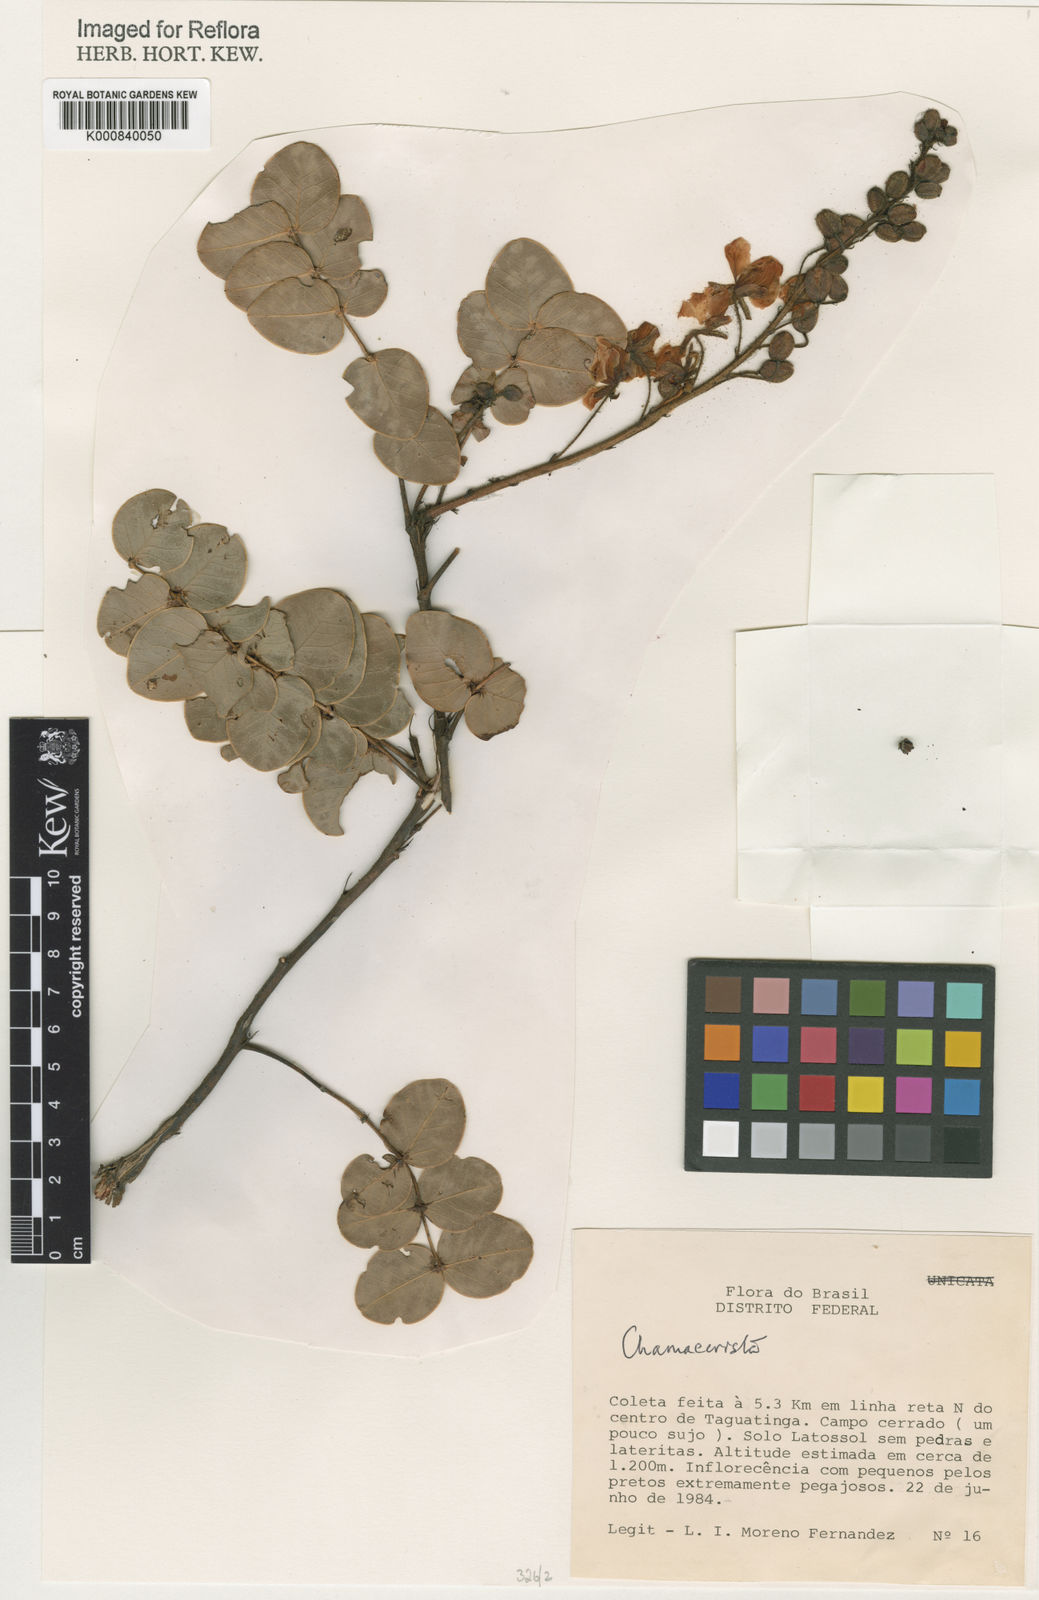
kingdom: Plantae
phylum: Tracheophyta
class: Magnoliopsida
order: Fabales
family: Fabaceae
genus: Chamaecrista
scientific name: Chamaecrista lundii
